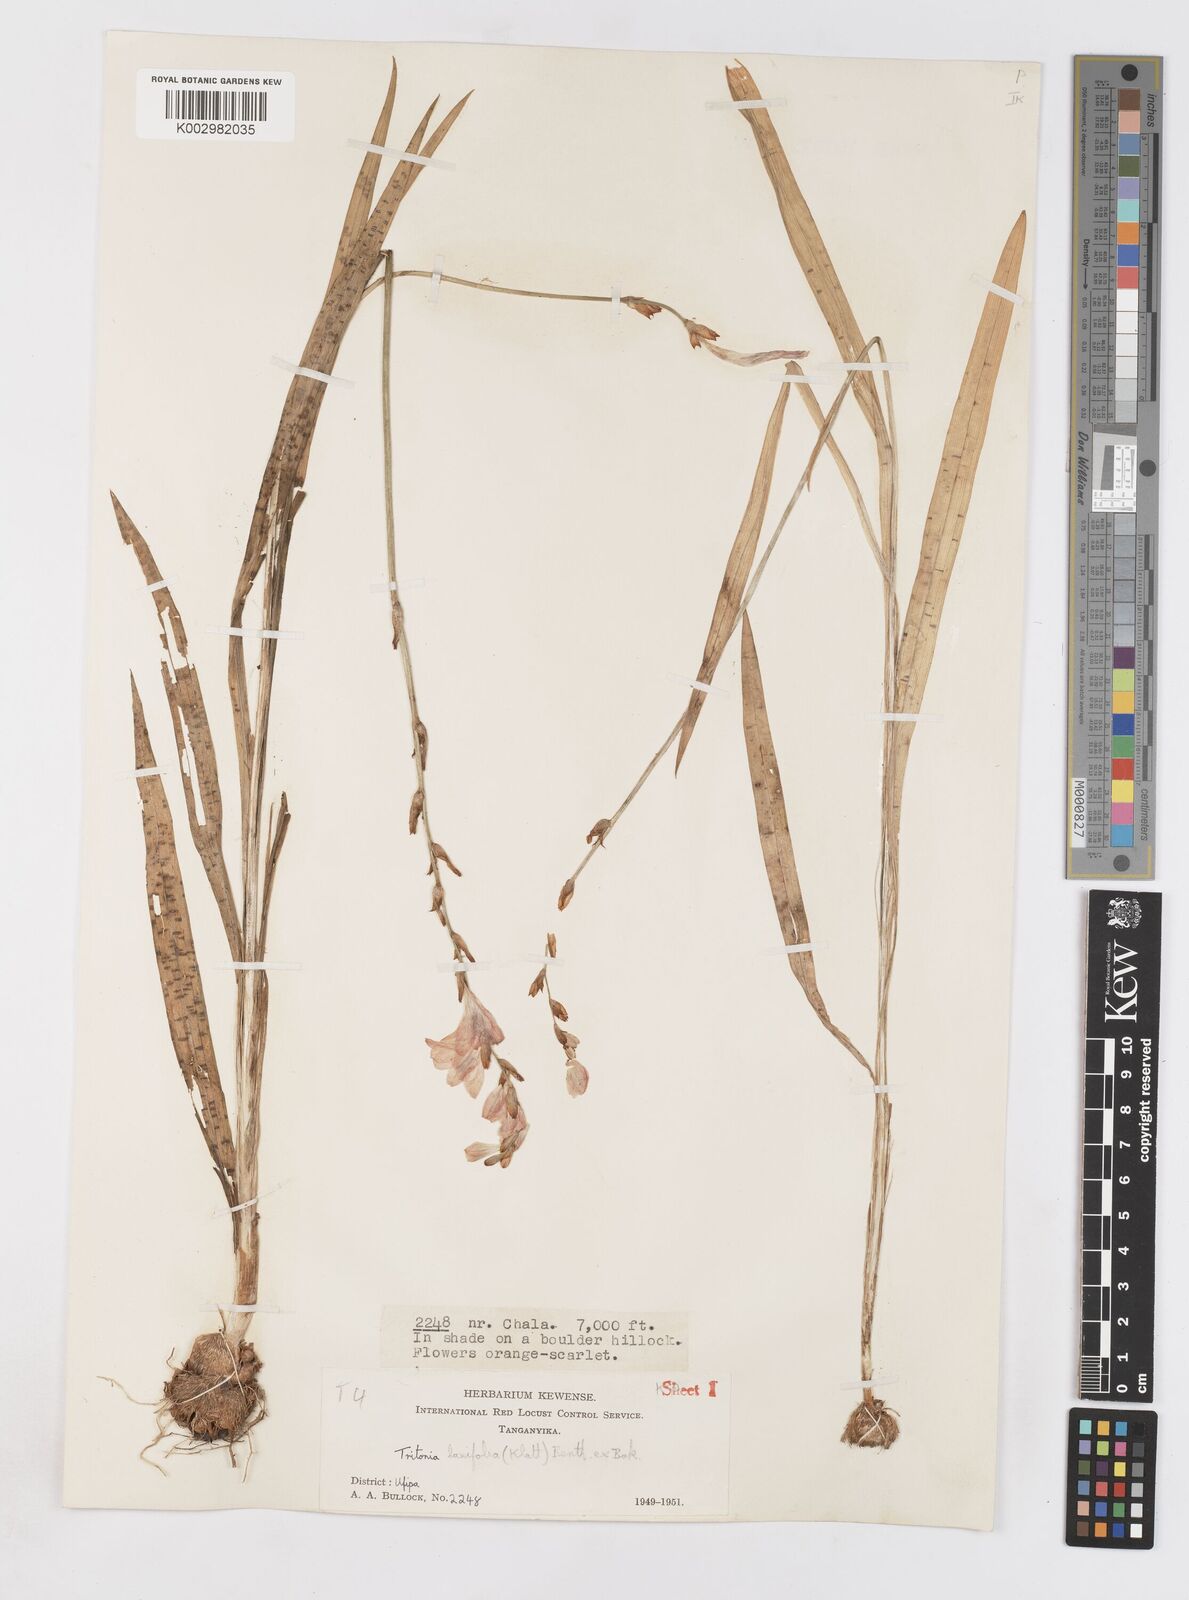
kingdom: Plantae
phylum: Tracheophyta
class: Liliopsida
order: Asparagales
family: Iridaceae
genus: Tritonia
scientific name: Tritonia laxifolia
